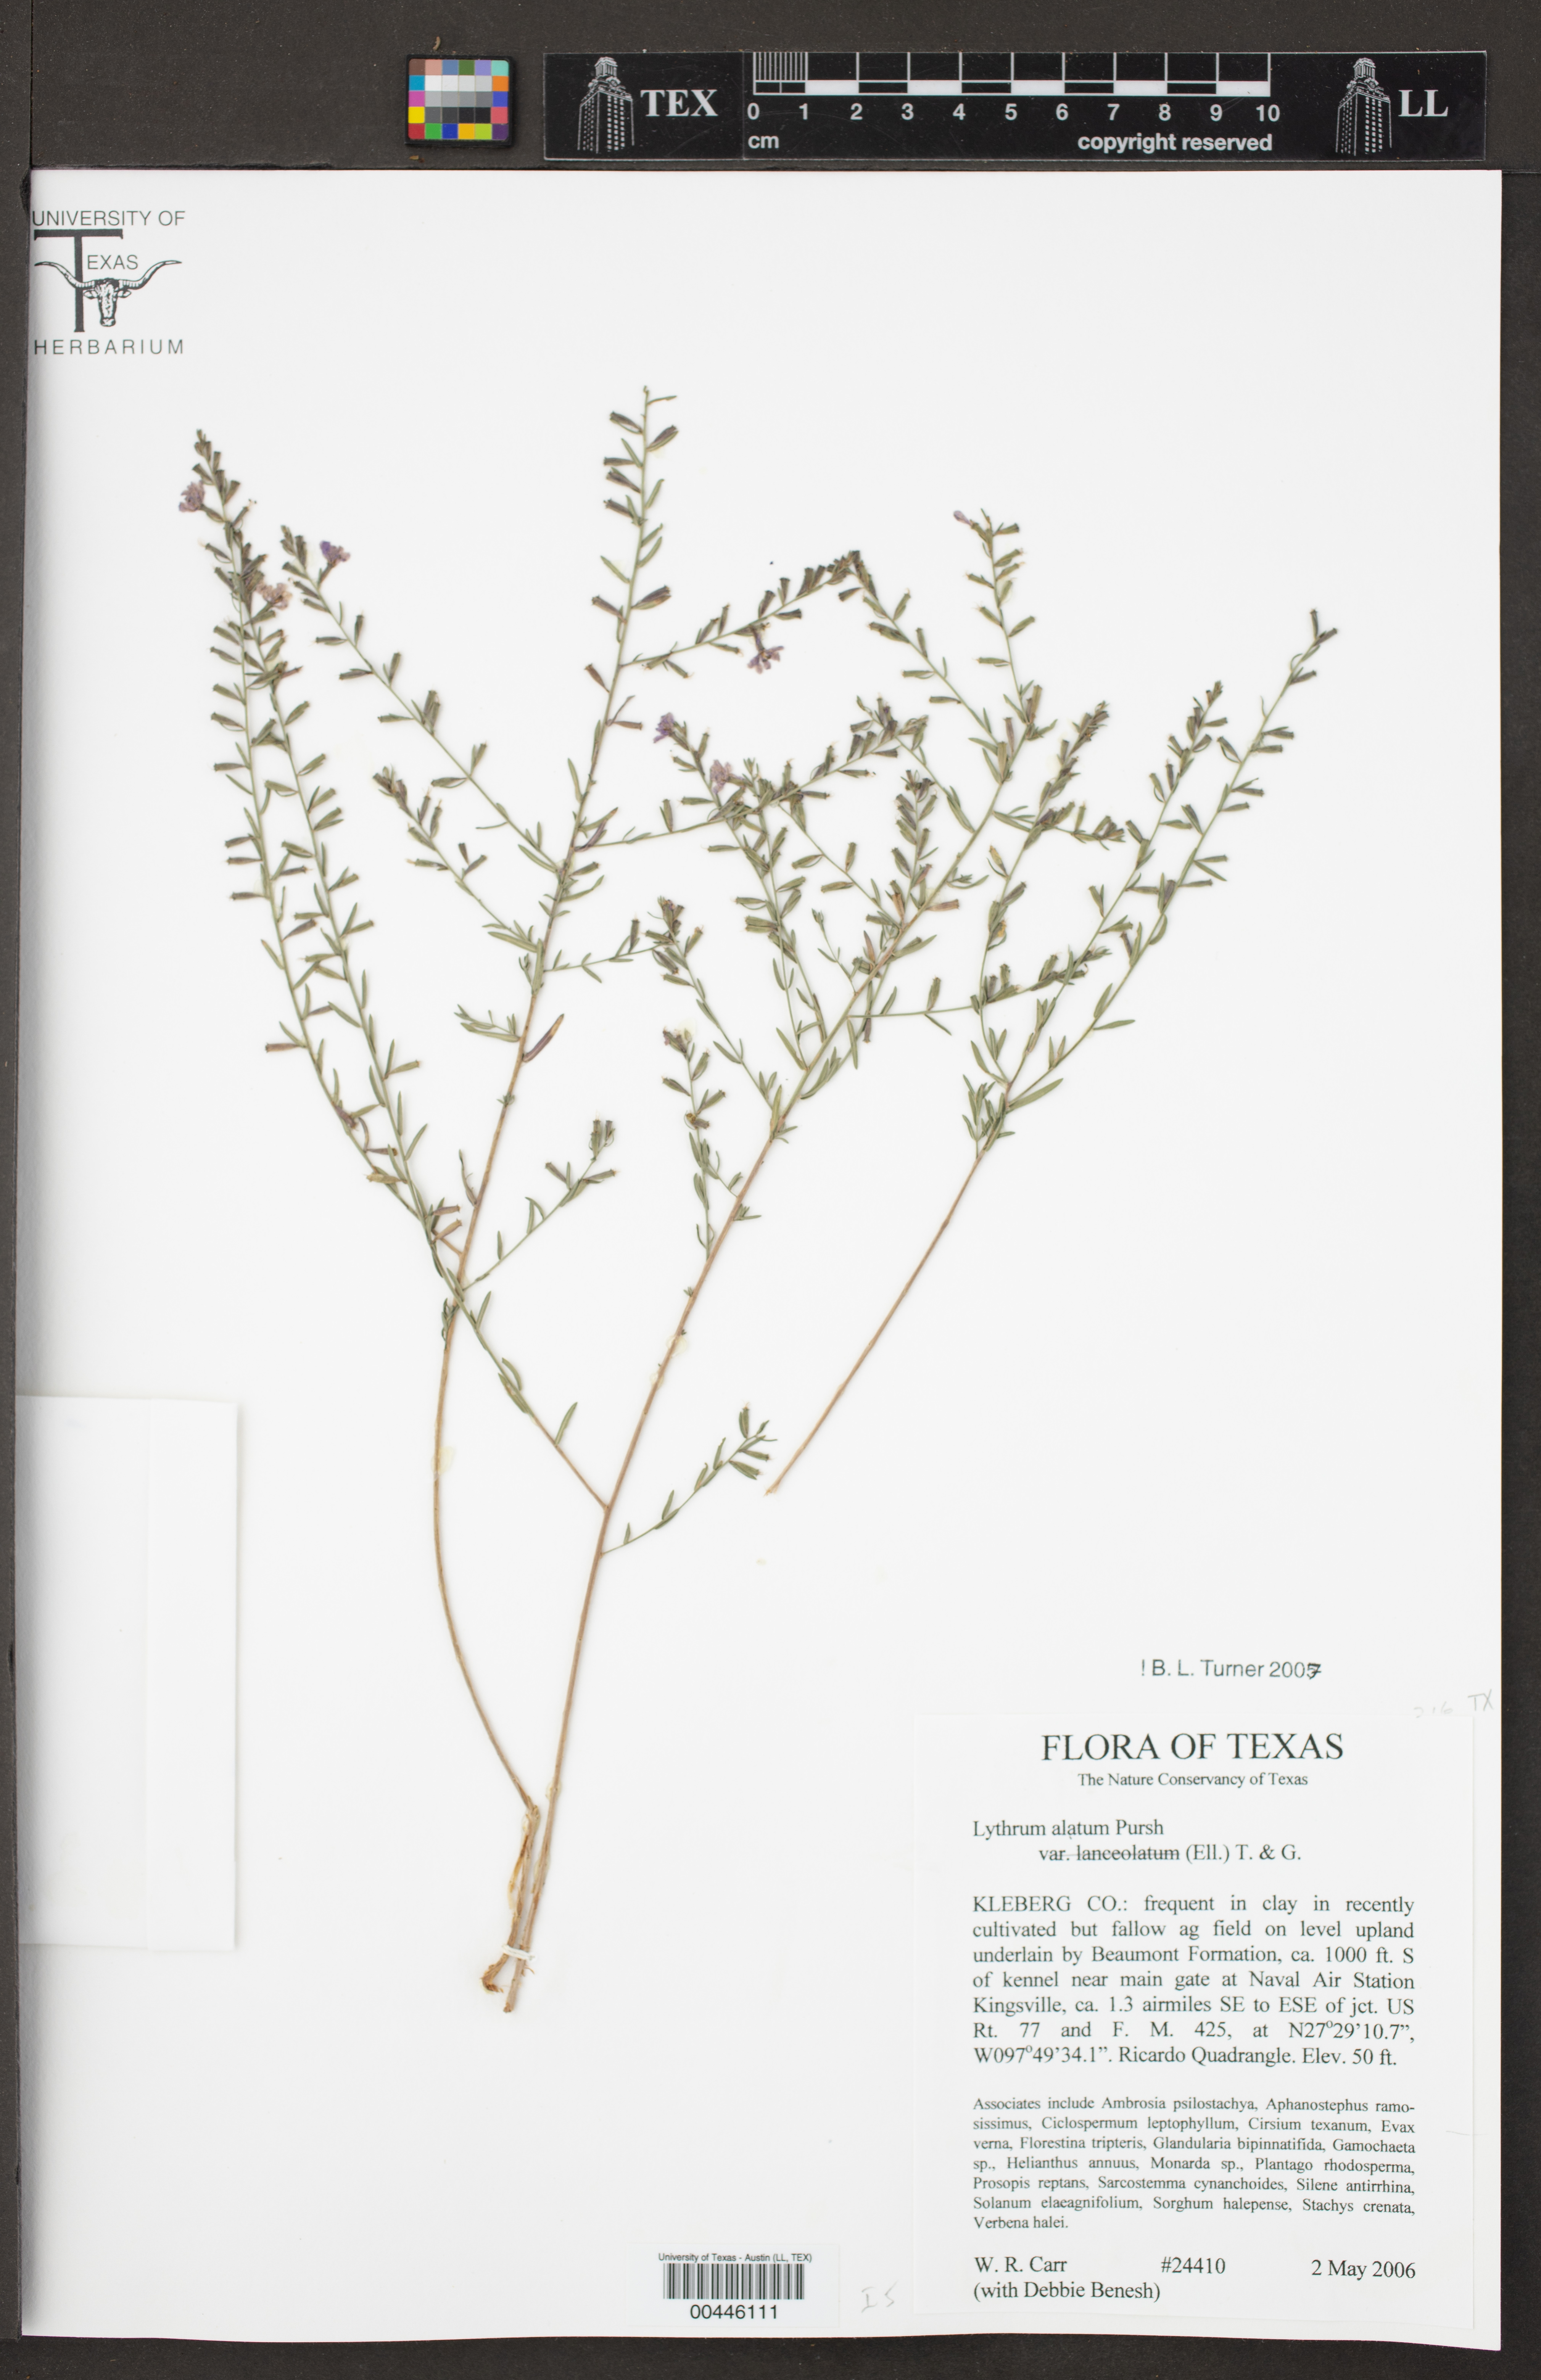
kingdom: Plantae
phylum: Tracheophyta
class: Magnoliopsida
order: Myrtales
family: Lythraceae
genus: Lythrum
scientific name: Lythrum alatum
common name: Winged loosestrife
